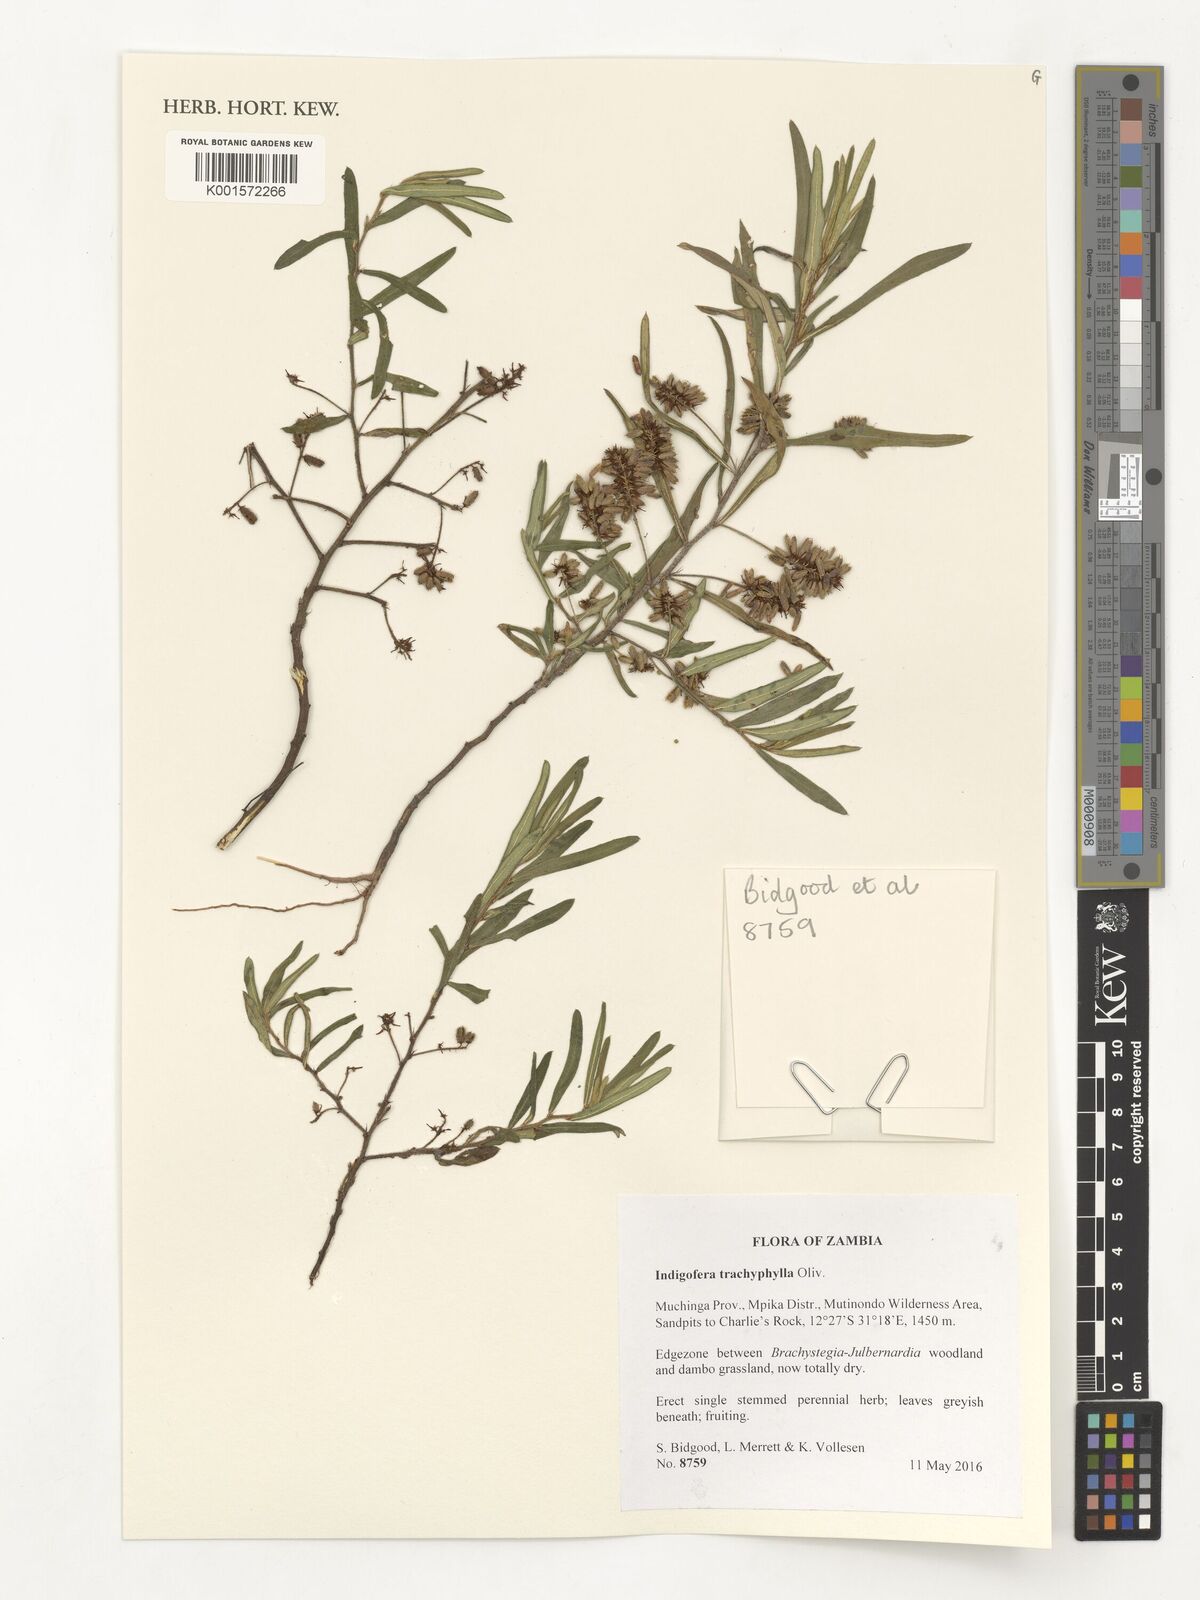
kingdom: Plantae
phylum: Tracheophyta
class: Magnoliopsida
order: Fabales
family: Fabaceae
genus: Indigofera
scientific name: Indigofera trachyphylla
